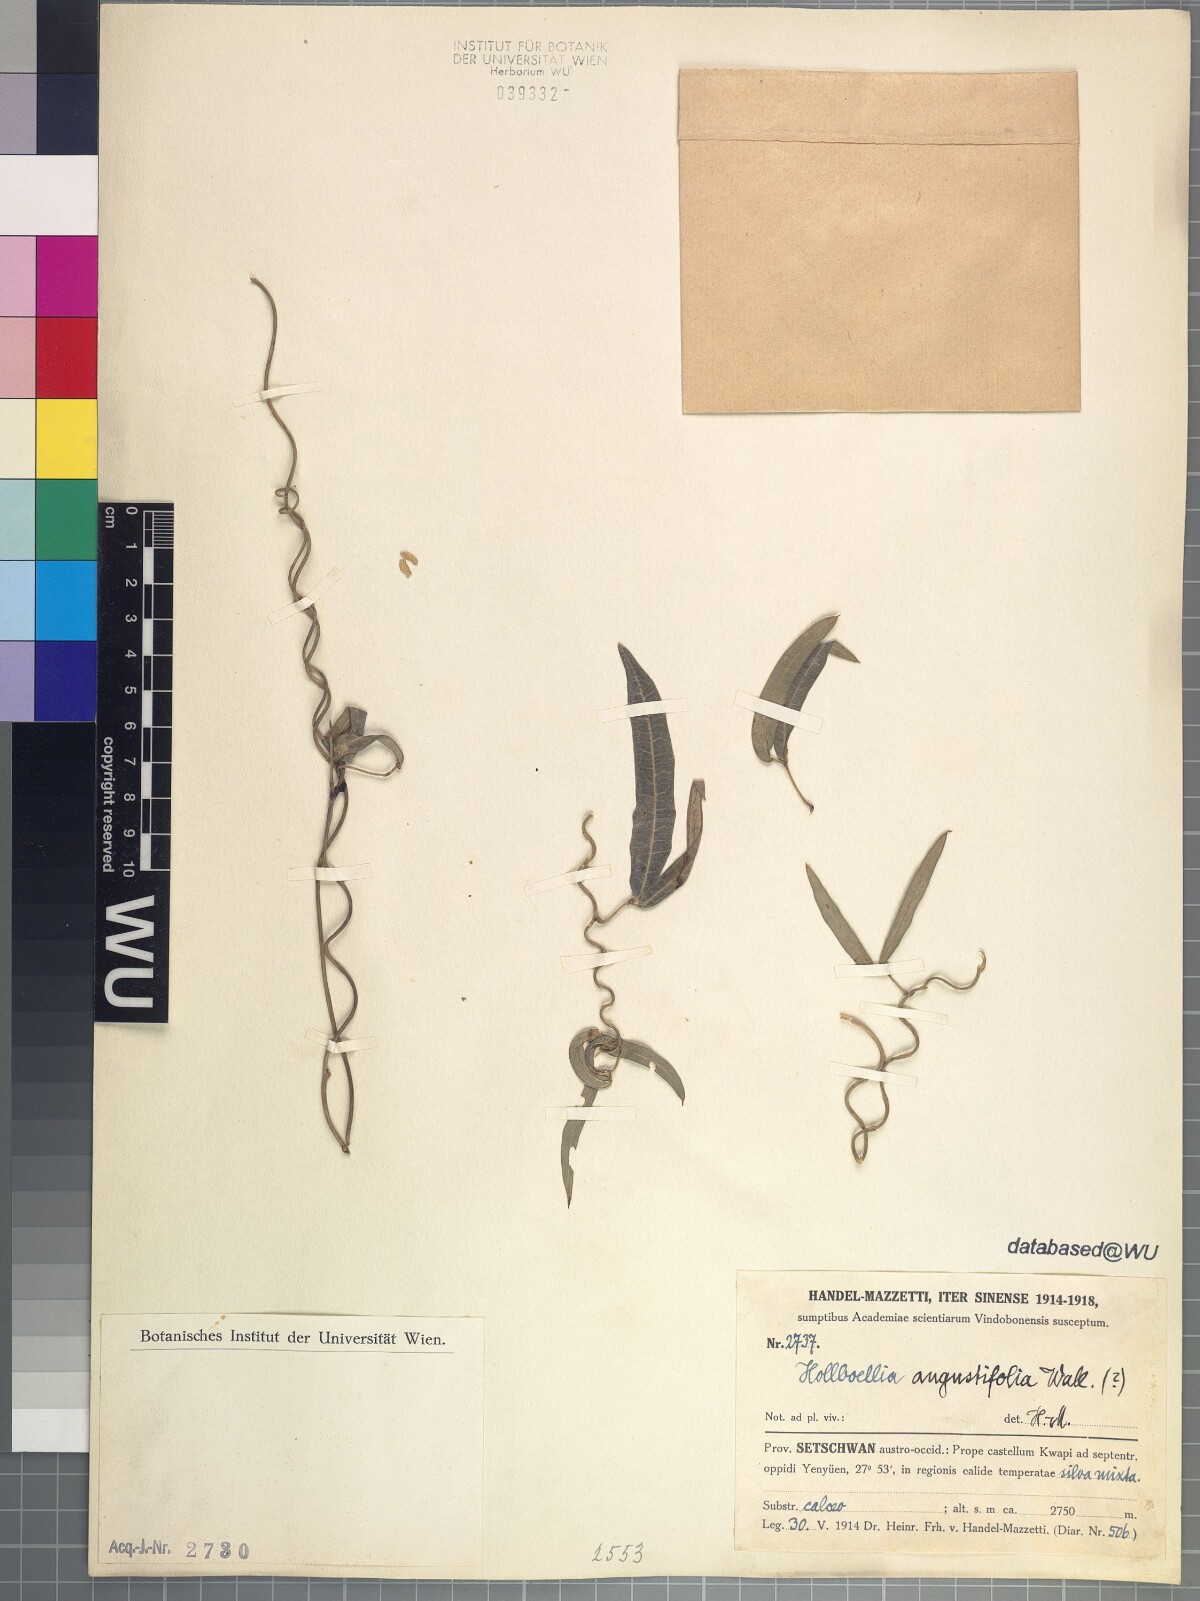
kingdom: Plantae
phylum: Tracheophyta
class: Magnoliopsida
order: Ranunculales
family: Lardizabalaceae
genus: Stauntonia
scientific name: Stauntonia angustifolia
